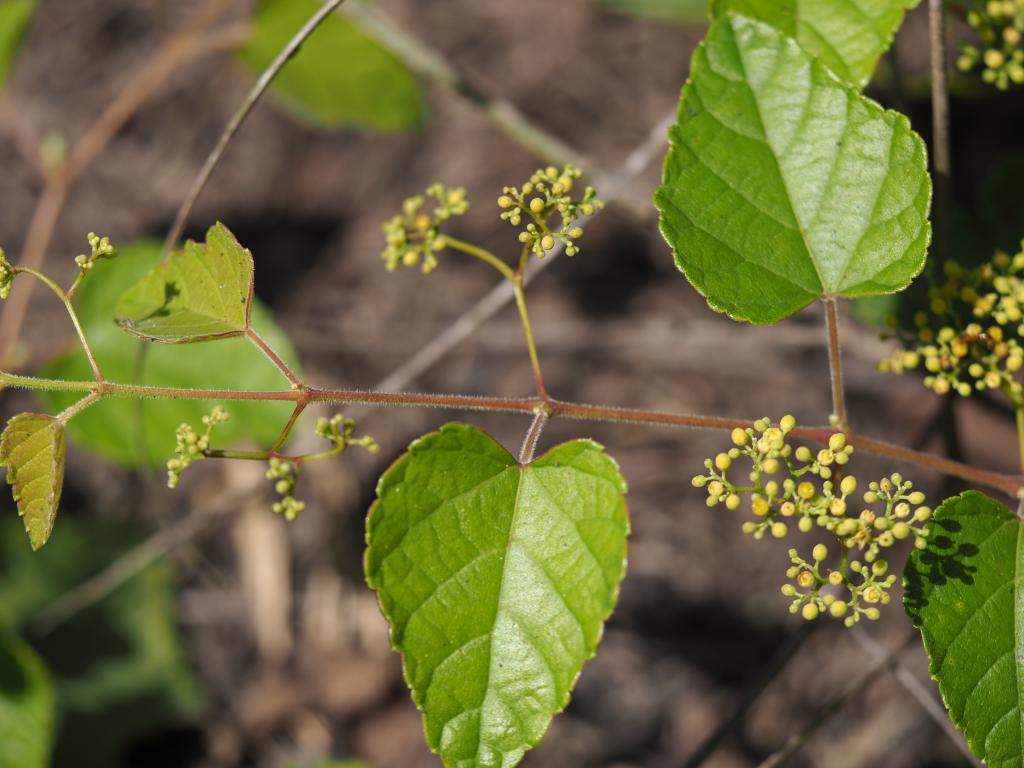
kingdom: Plantae
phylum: Tracheophyta
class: Magnoliopsida
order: Vitales
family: Vitaceae
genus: Ampelopsis
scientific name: Ampelopsis glandulosa
